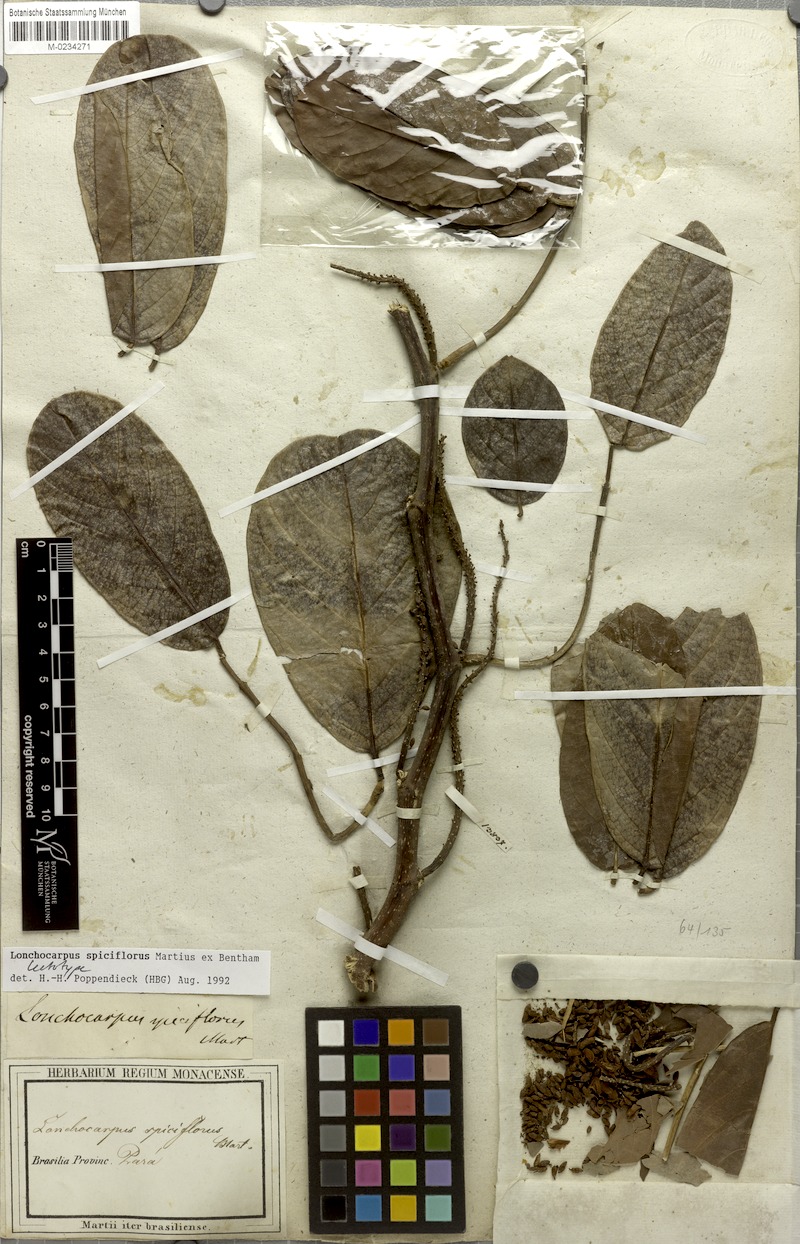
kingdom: Plantae
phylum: Tracheophyta
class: Magnoliopsida
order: Fabales
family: Fabaceae
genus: Lonchocarpus
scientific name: Lonchocarpus spiciflorus
